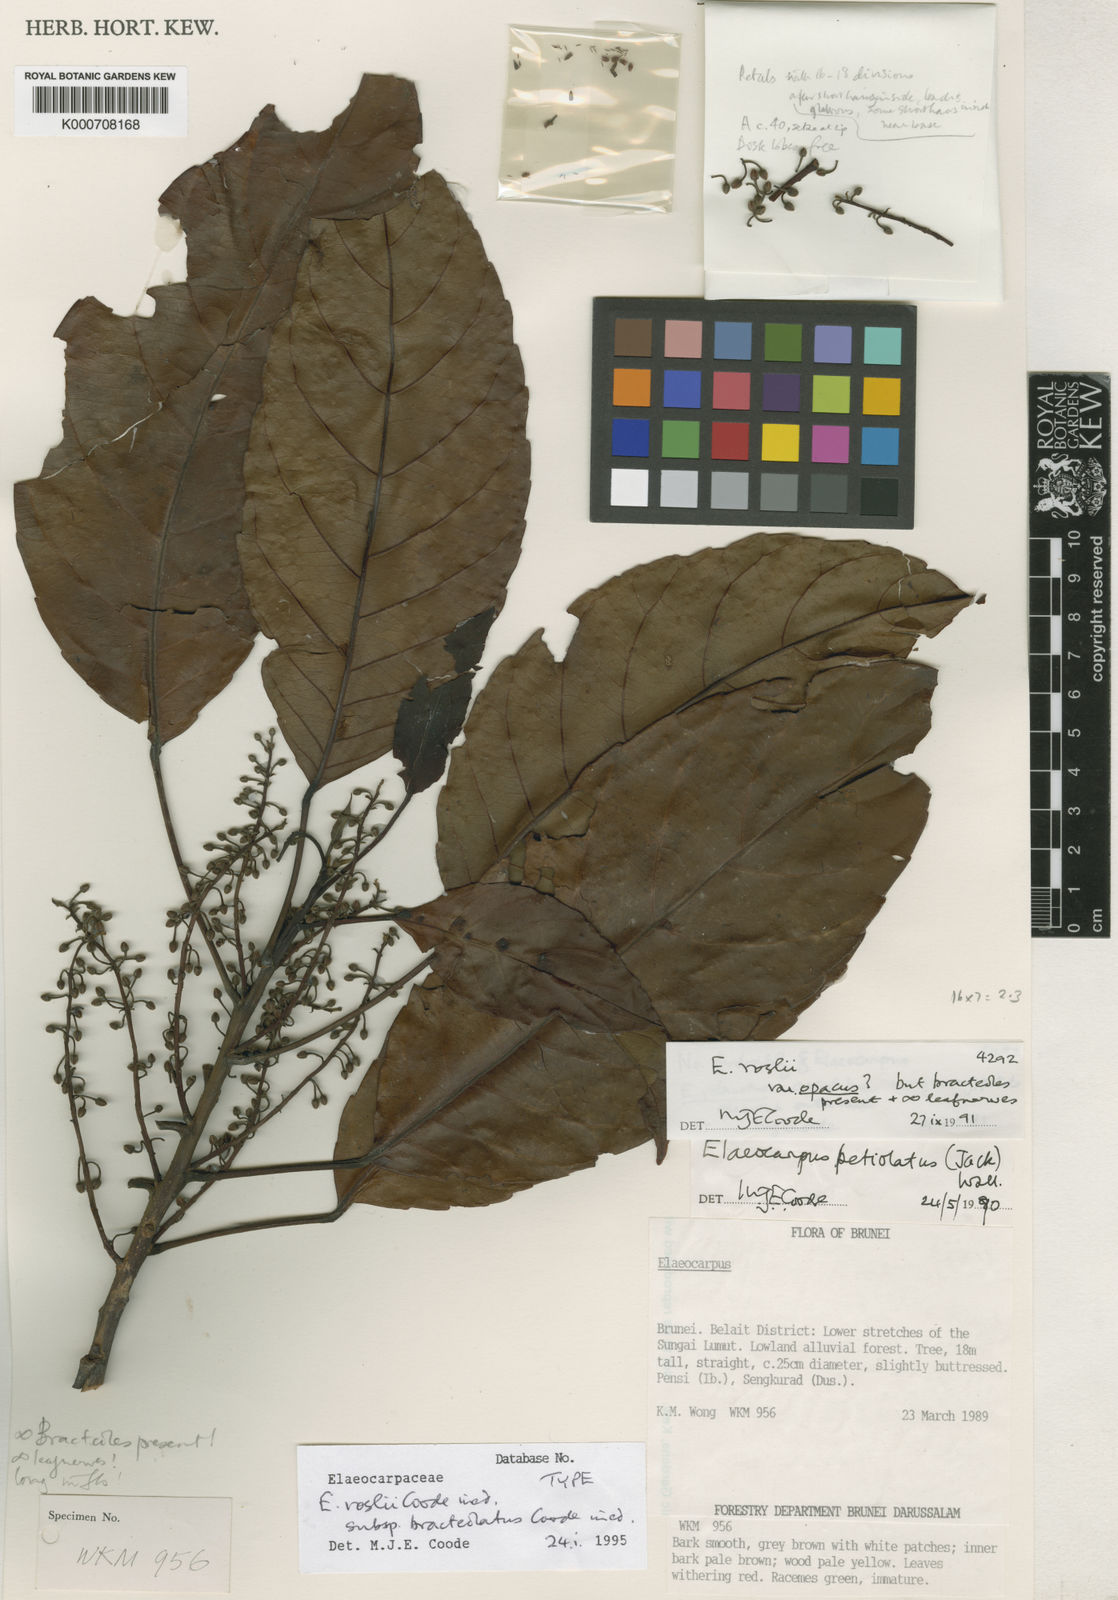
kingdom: Plantae
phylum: Tracheophyta
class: Magnoliopsida
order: Oxalidales
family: Elaeocarpaceae
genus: Elaeocarpus
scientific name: Elaeocarpus roslii
